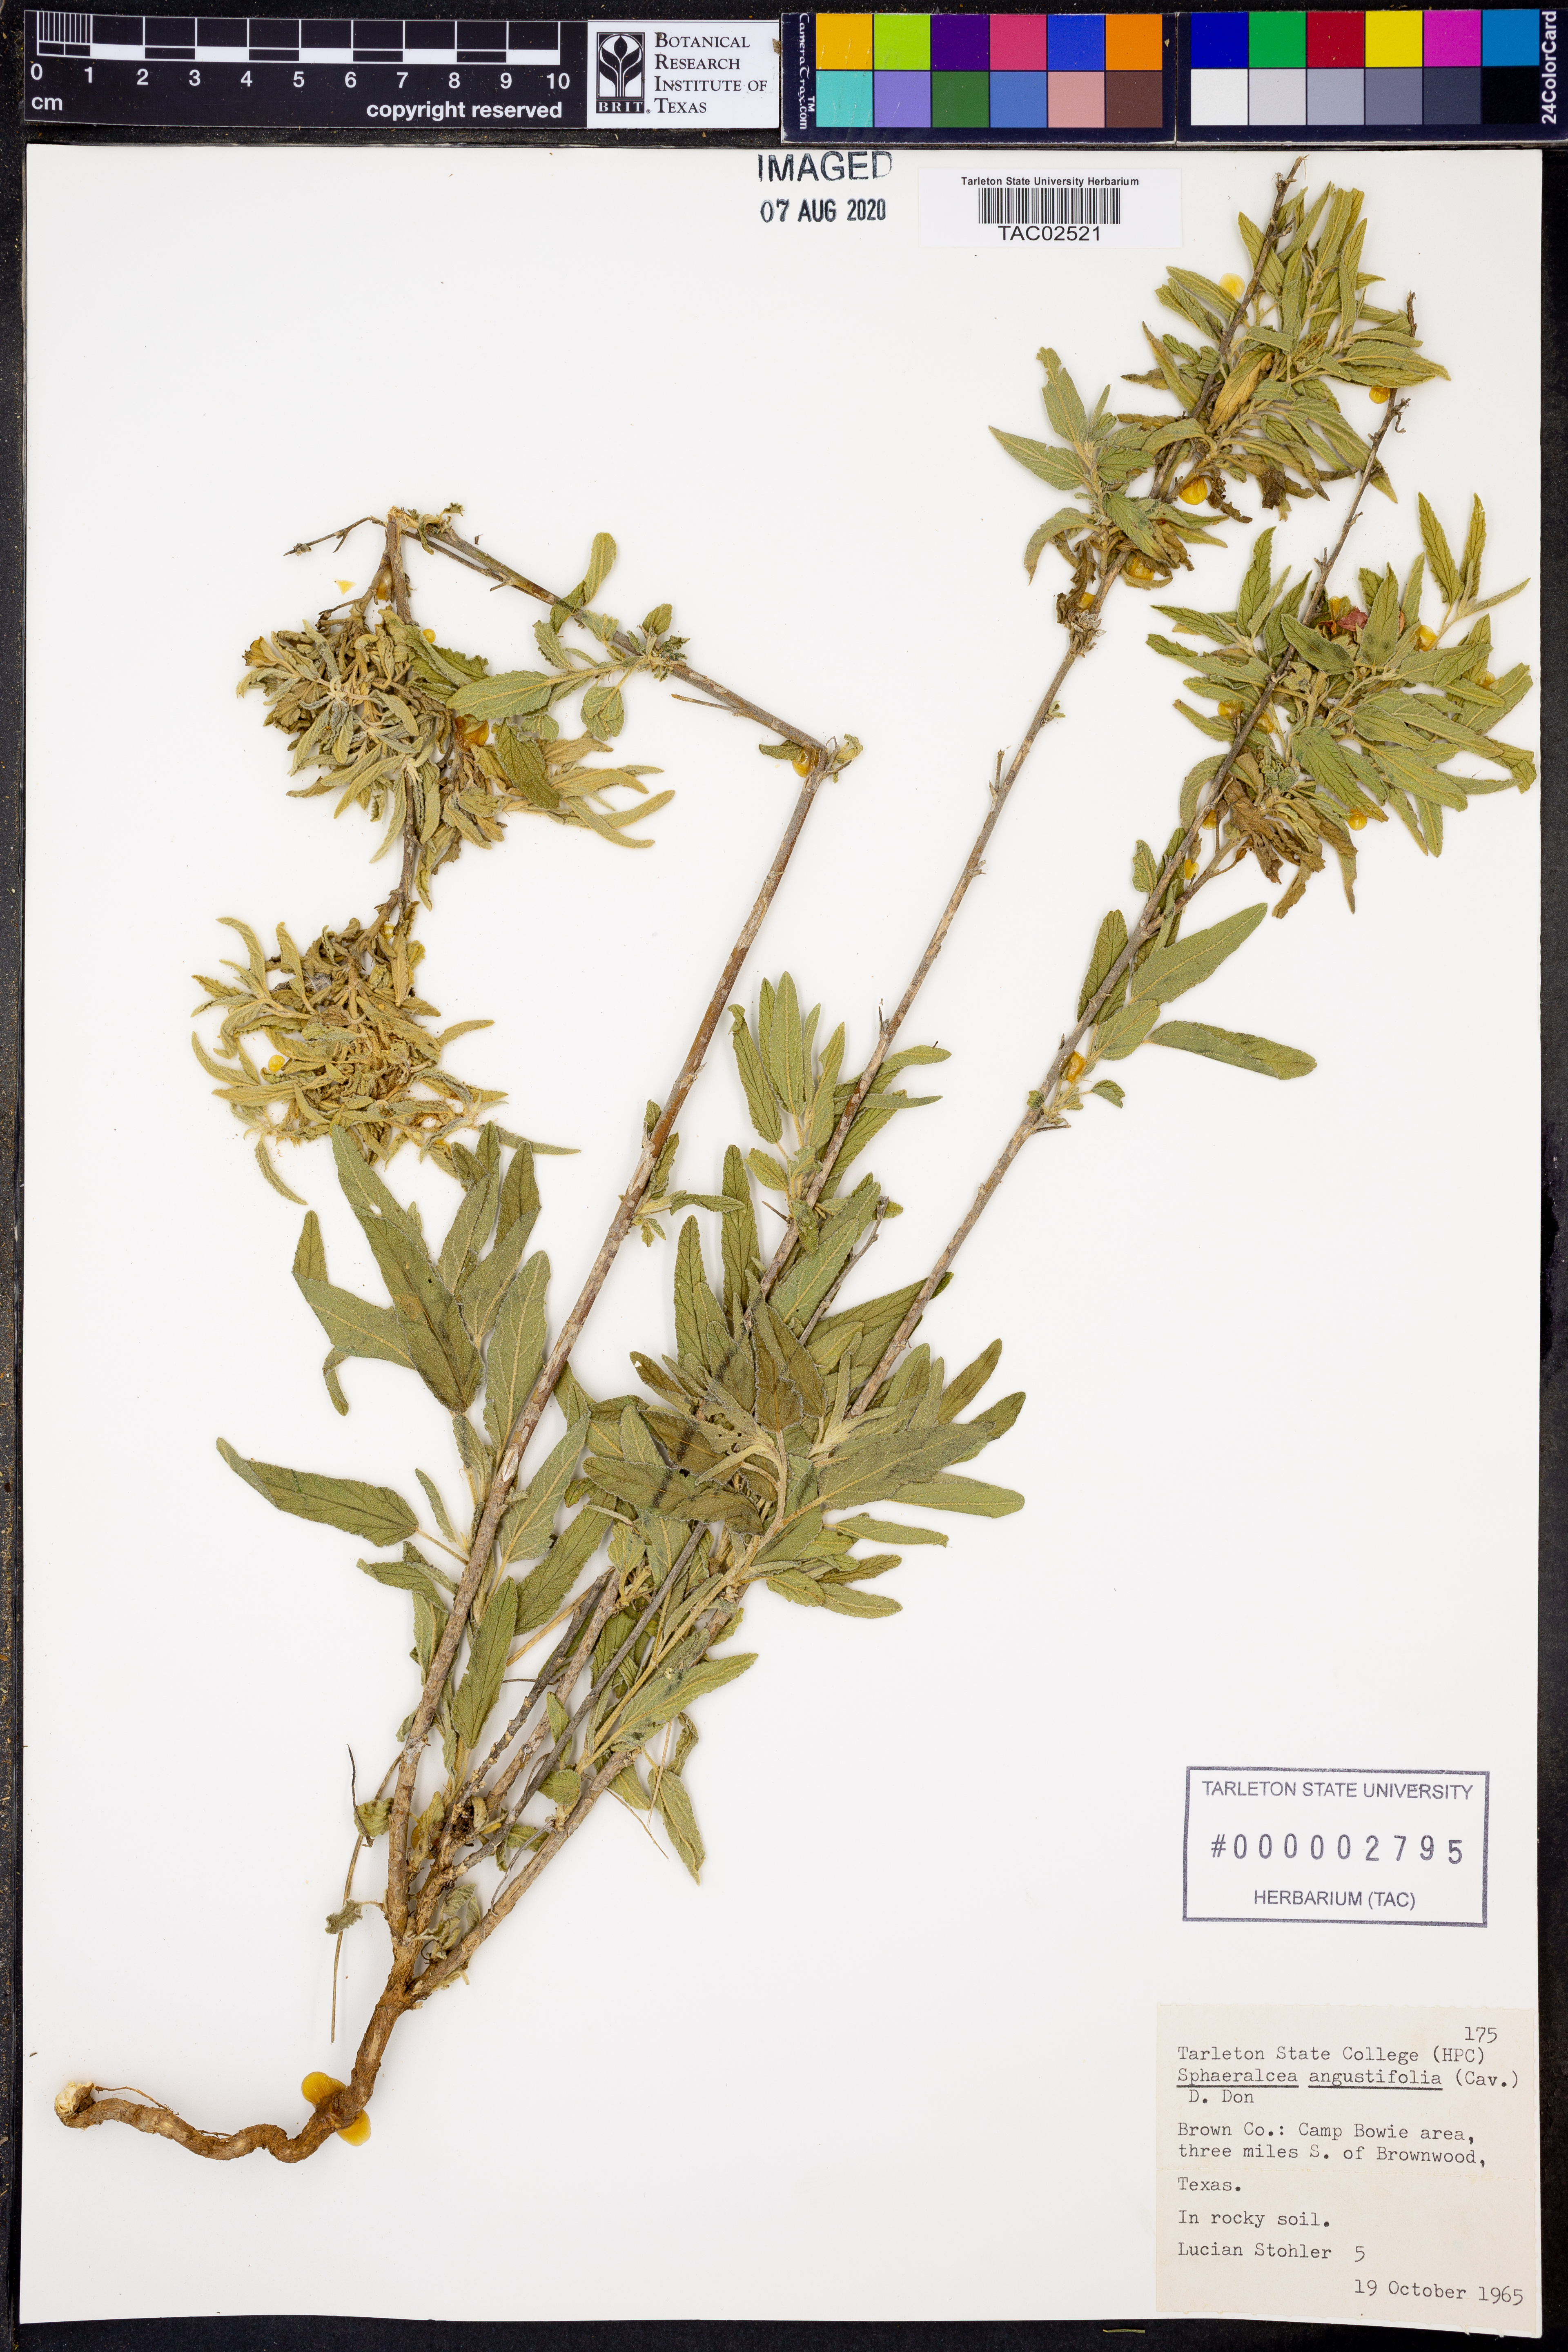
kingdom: Plantae
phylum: Tracheophyta
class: Magnoliopsida
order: Malvales
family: Malvaceae
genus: Sphaeralcea
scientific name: Sphaeralcea angustifolia
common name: Copper globe-mallow
